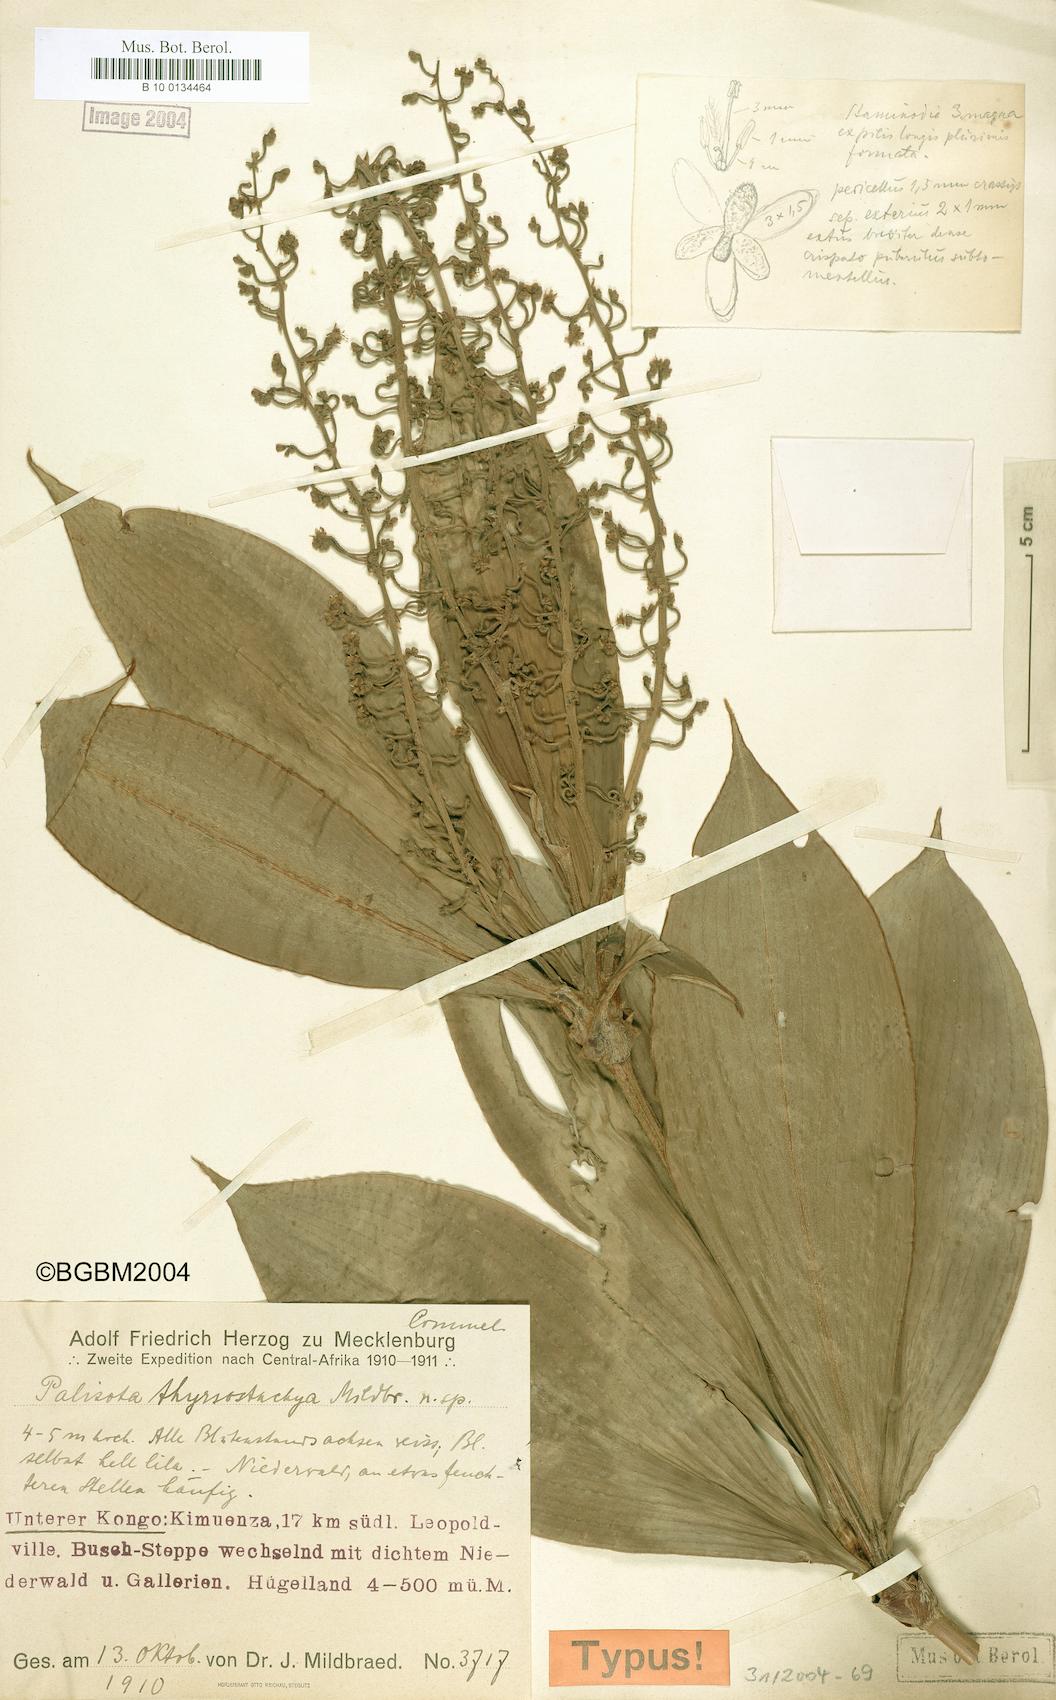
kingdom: Plantae
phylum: Tracheophyta
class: Liliopsida
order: Commelinales
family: Commelinaceae
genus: Palisota
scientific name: Palisota hirsuta
